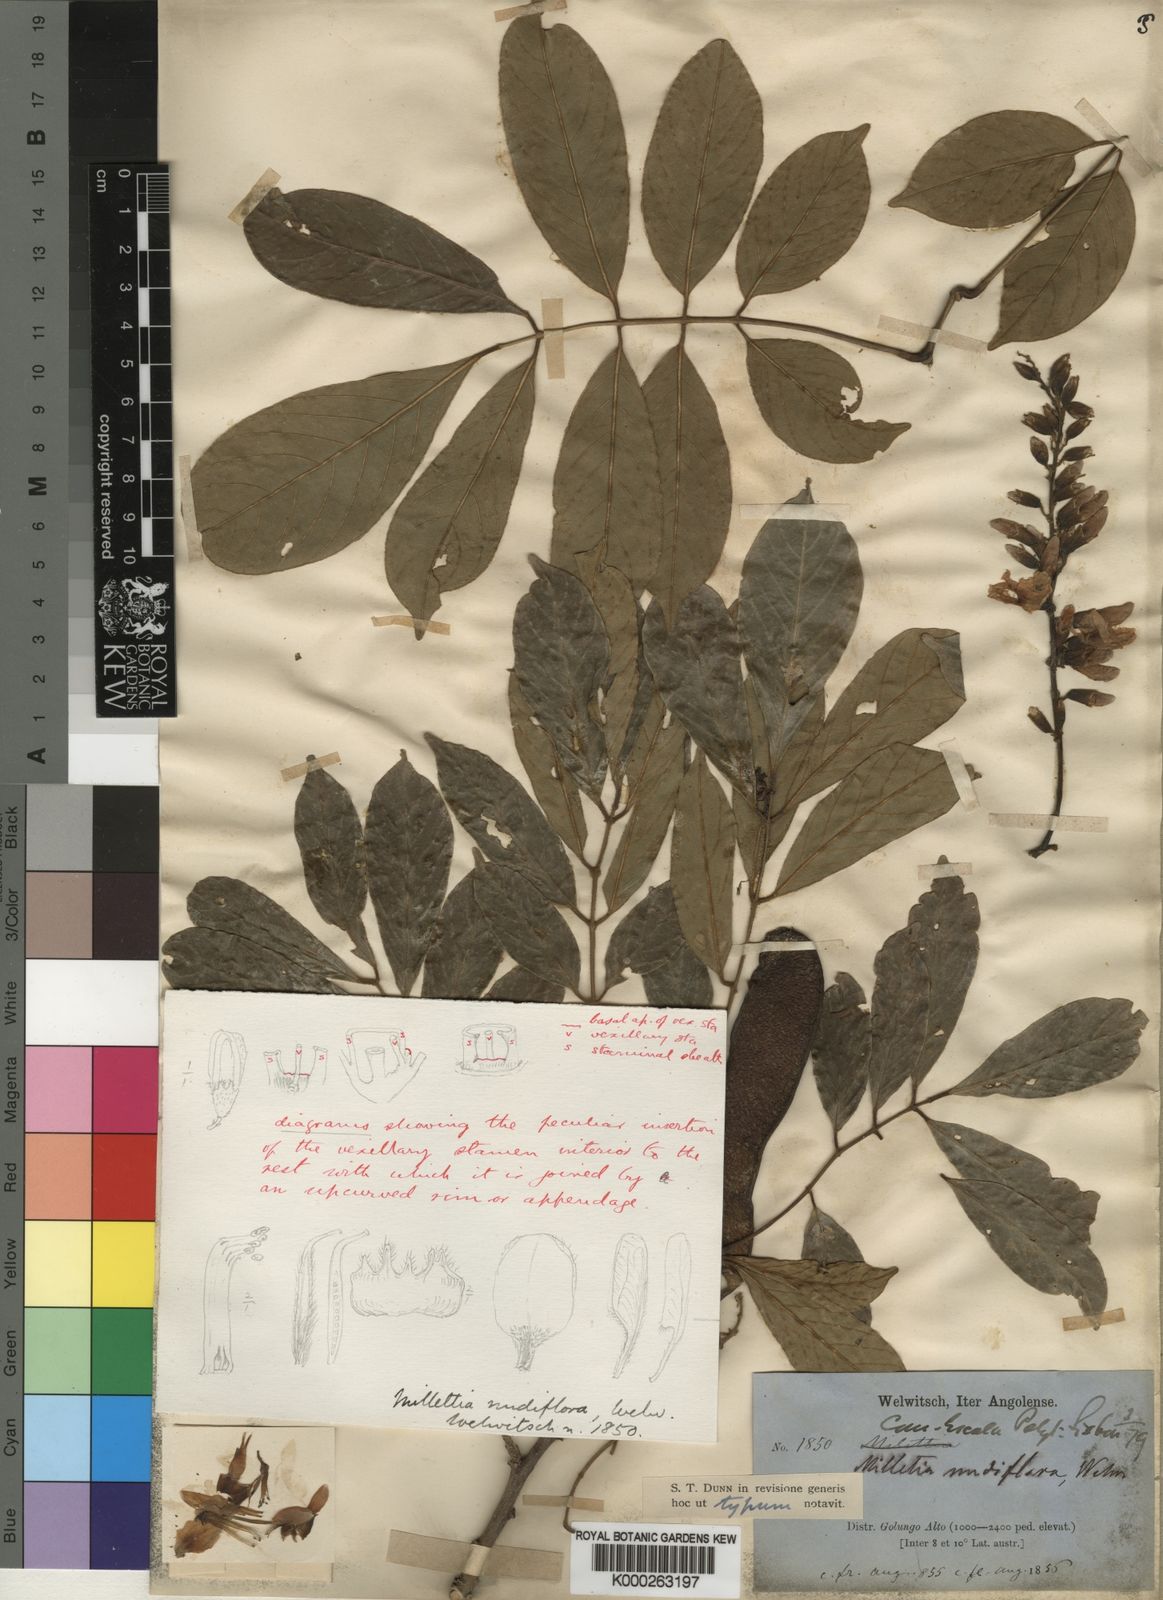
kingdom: Plantae
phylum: Tracheophyta
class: Magnoliopsida
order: Fabales
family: Fabaceae
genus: Millettia
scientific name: Millettia
